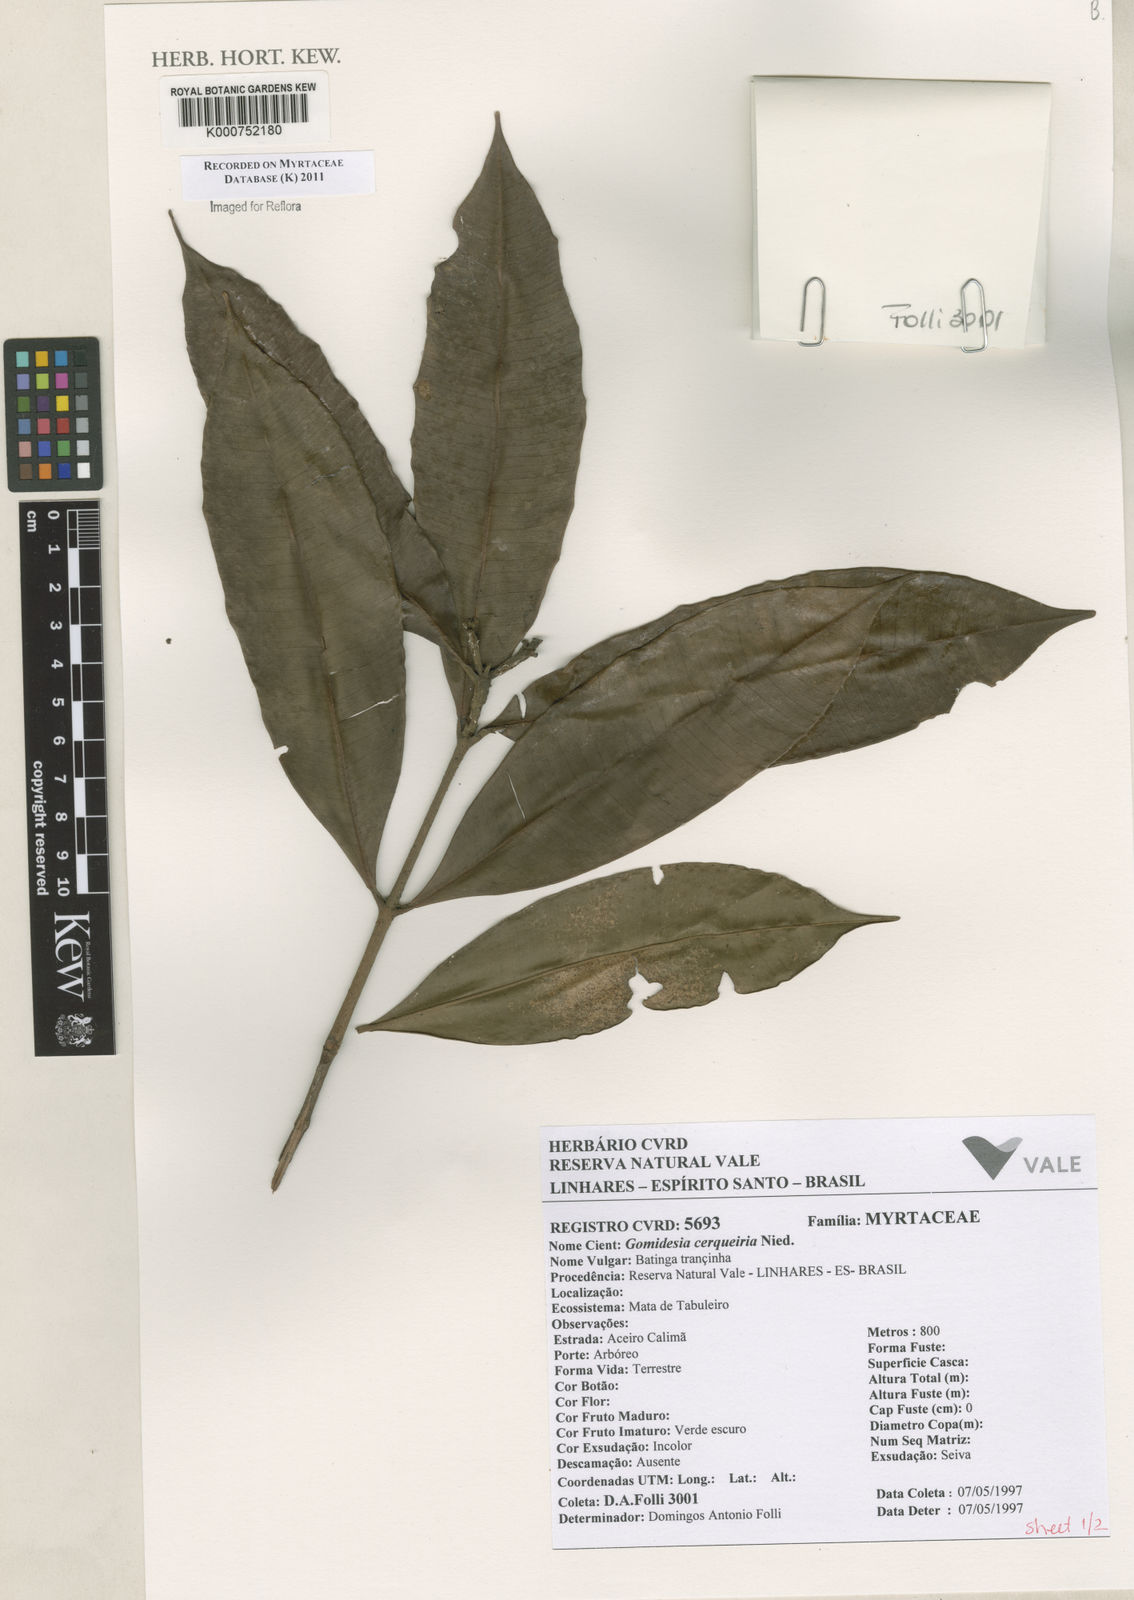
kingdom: Plantae
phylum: Tracheophyta
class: Magnoliopsida
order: Myrtales
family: Myrtaceae
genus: Myrcia
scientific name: Myrcia cerqueiria
